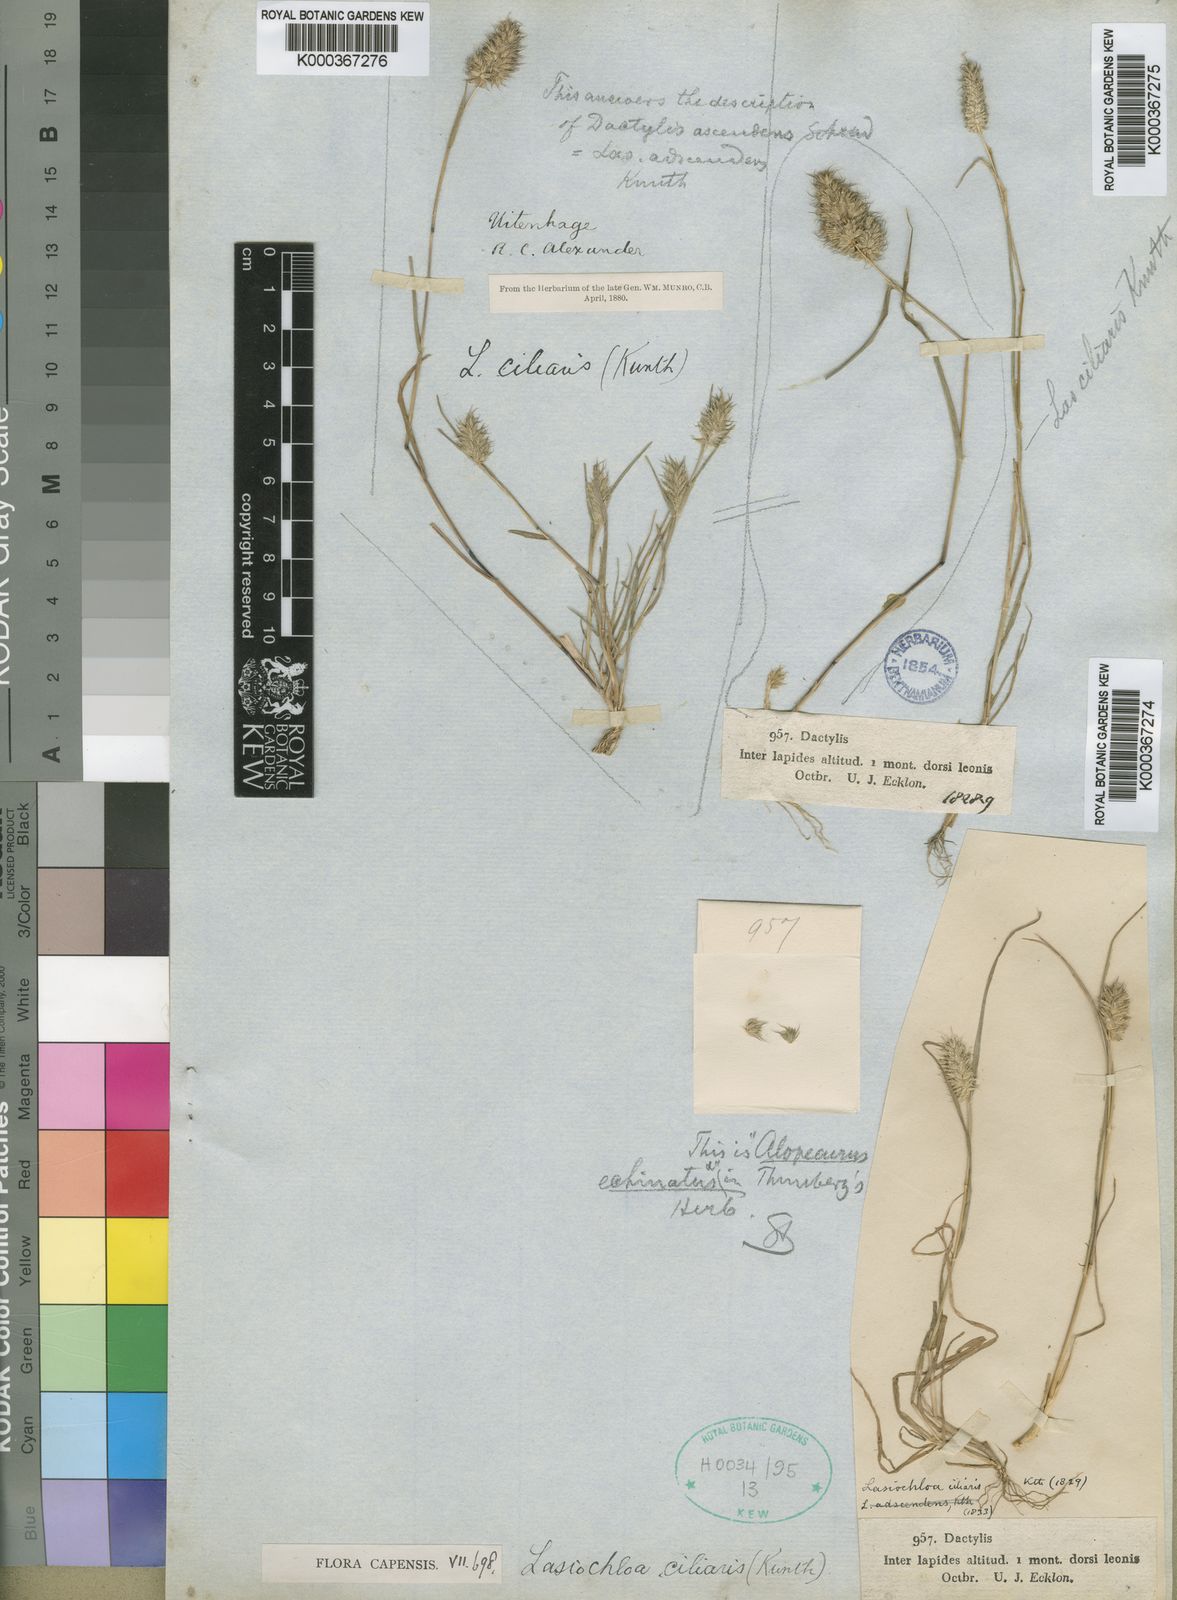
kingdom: Plantae
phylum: Tracheophyta
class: Liliopsida
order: Poales
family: Poaceae
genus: Tribolium
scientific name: Tribolium echinatum
